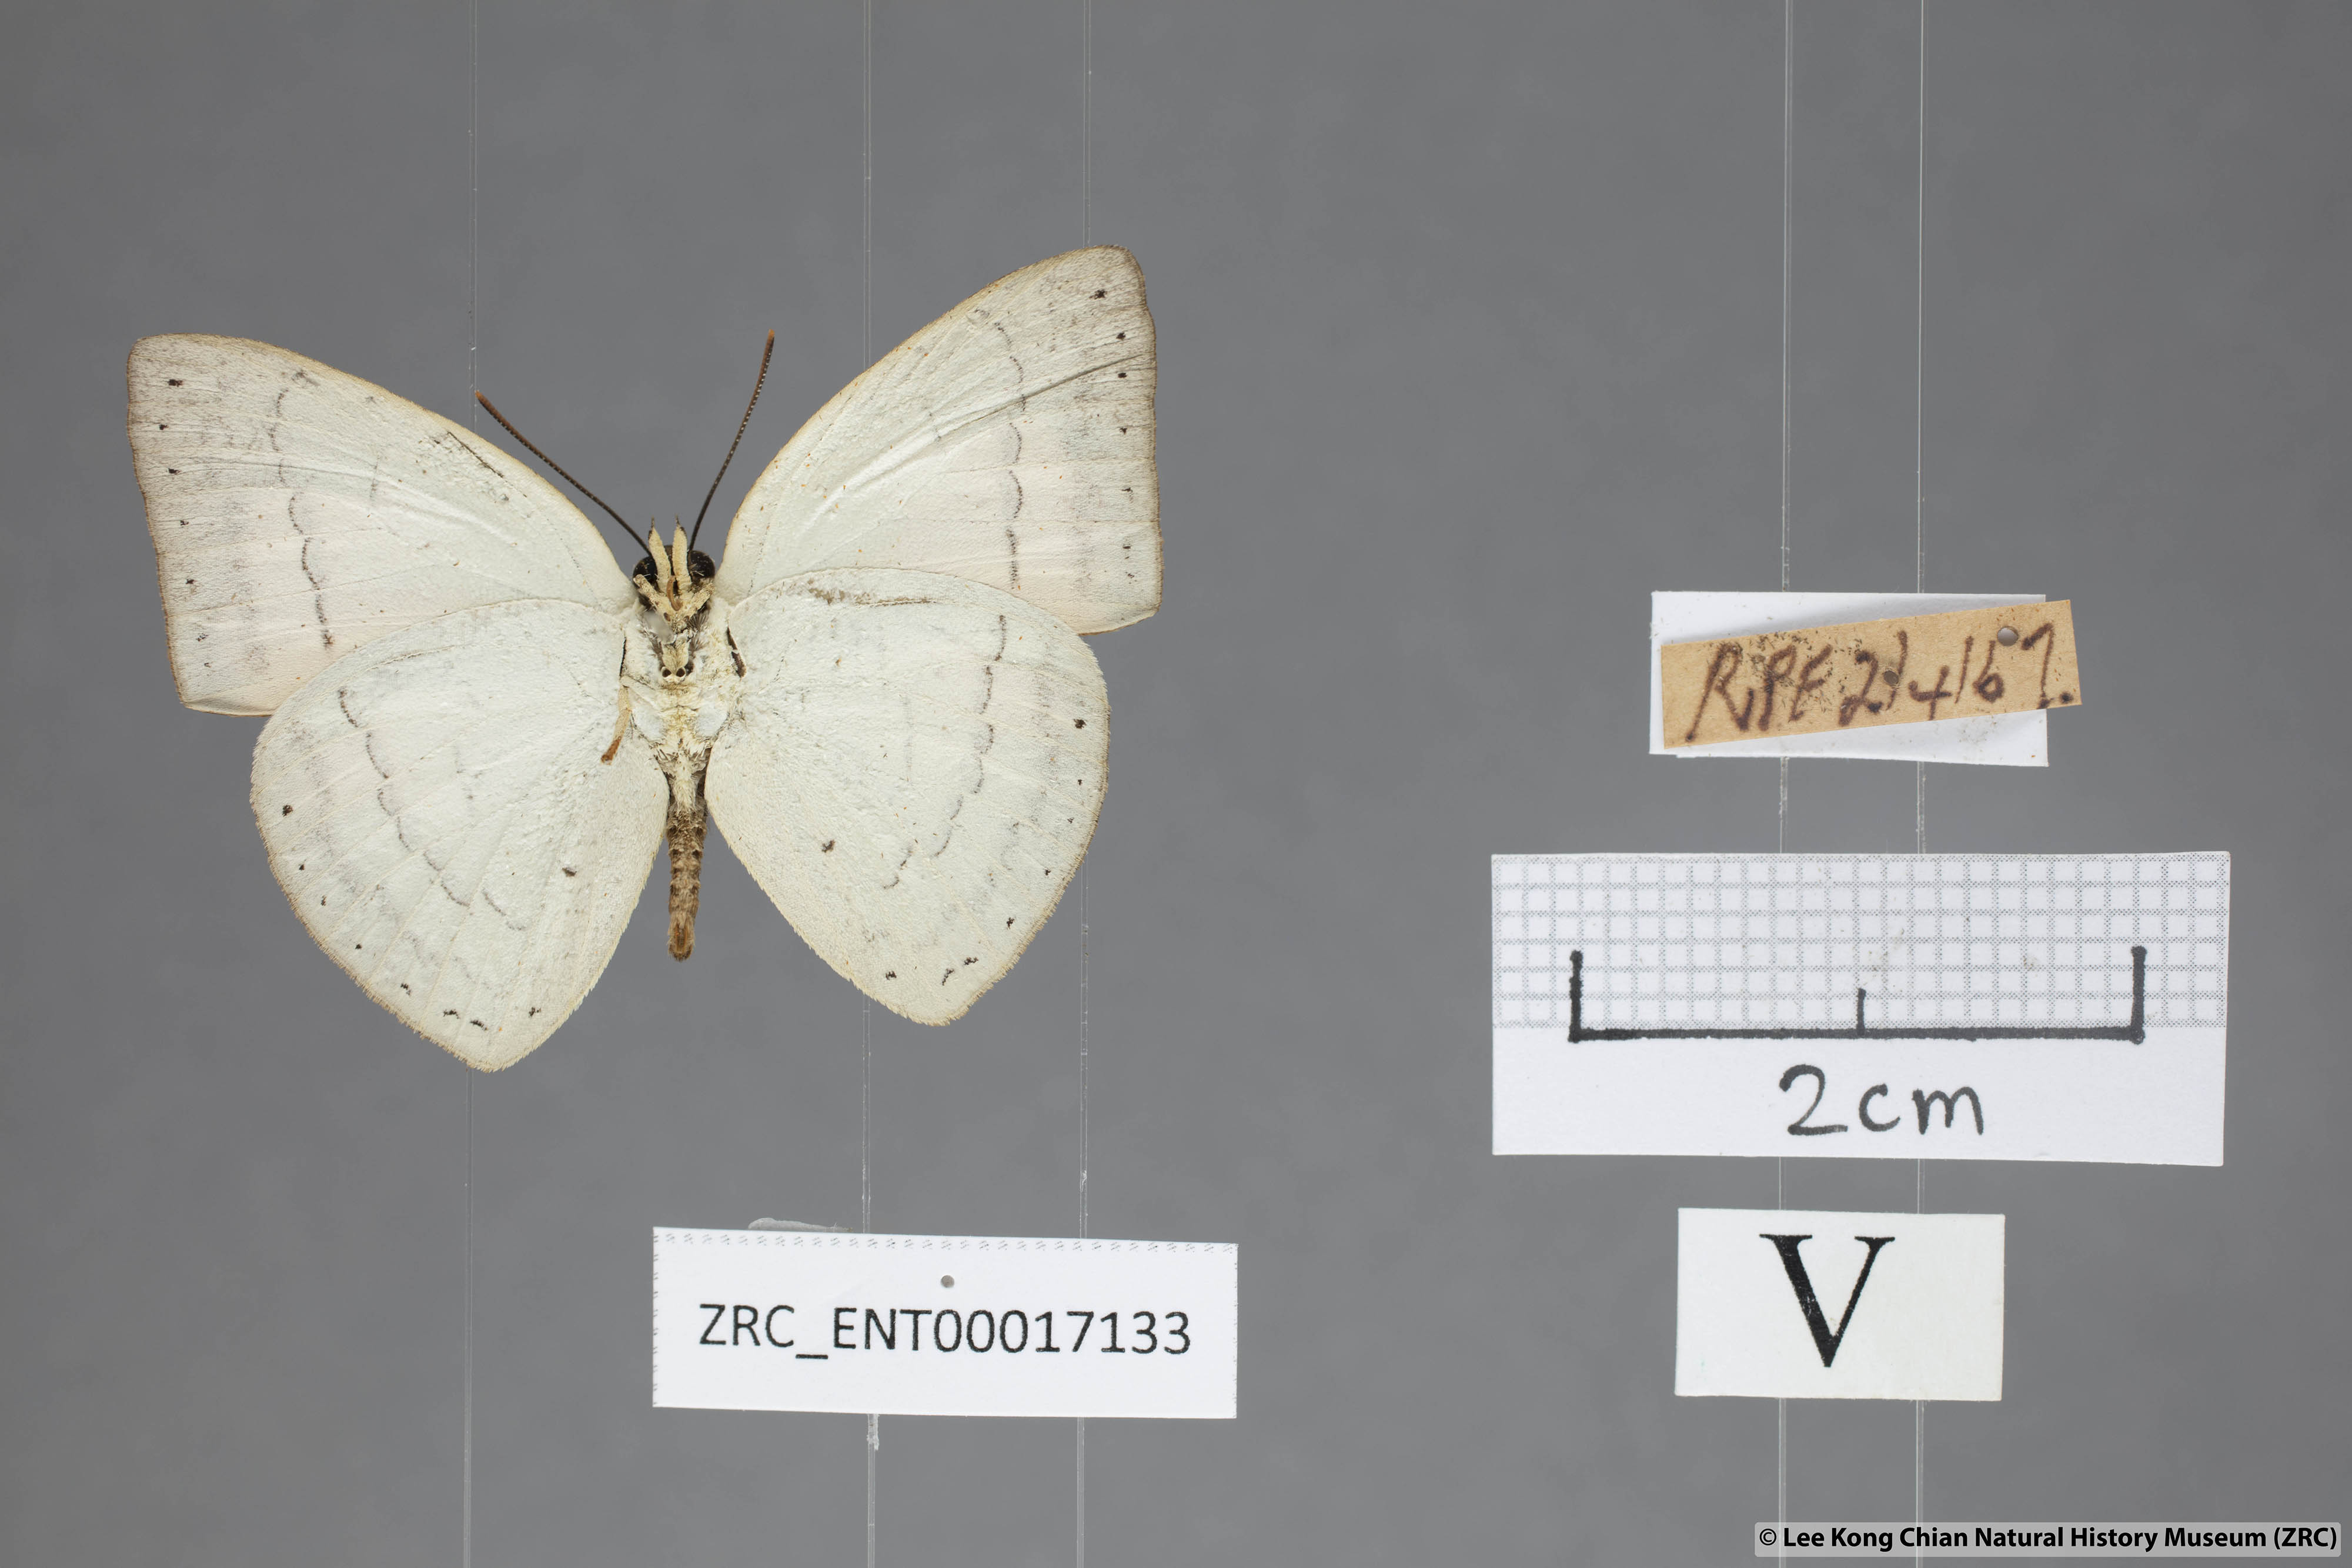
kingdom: Animalia
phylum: Arthropoda
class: Insecta
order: Lepidoptera
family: Lycaenidae
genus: Curetis
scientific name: Curetis insularis
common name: Narrow-banded sunbeam
